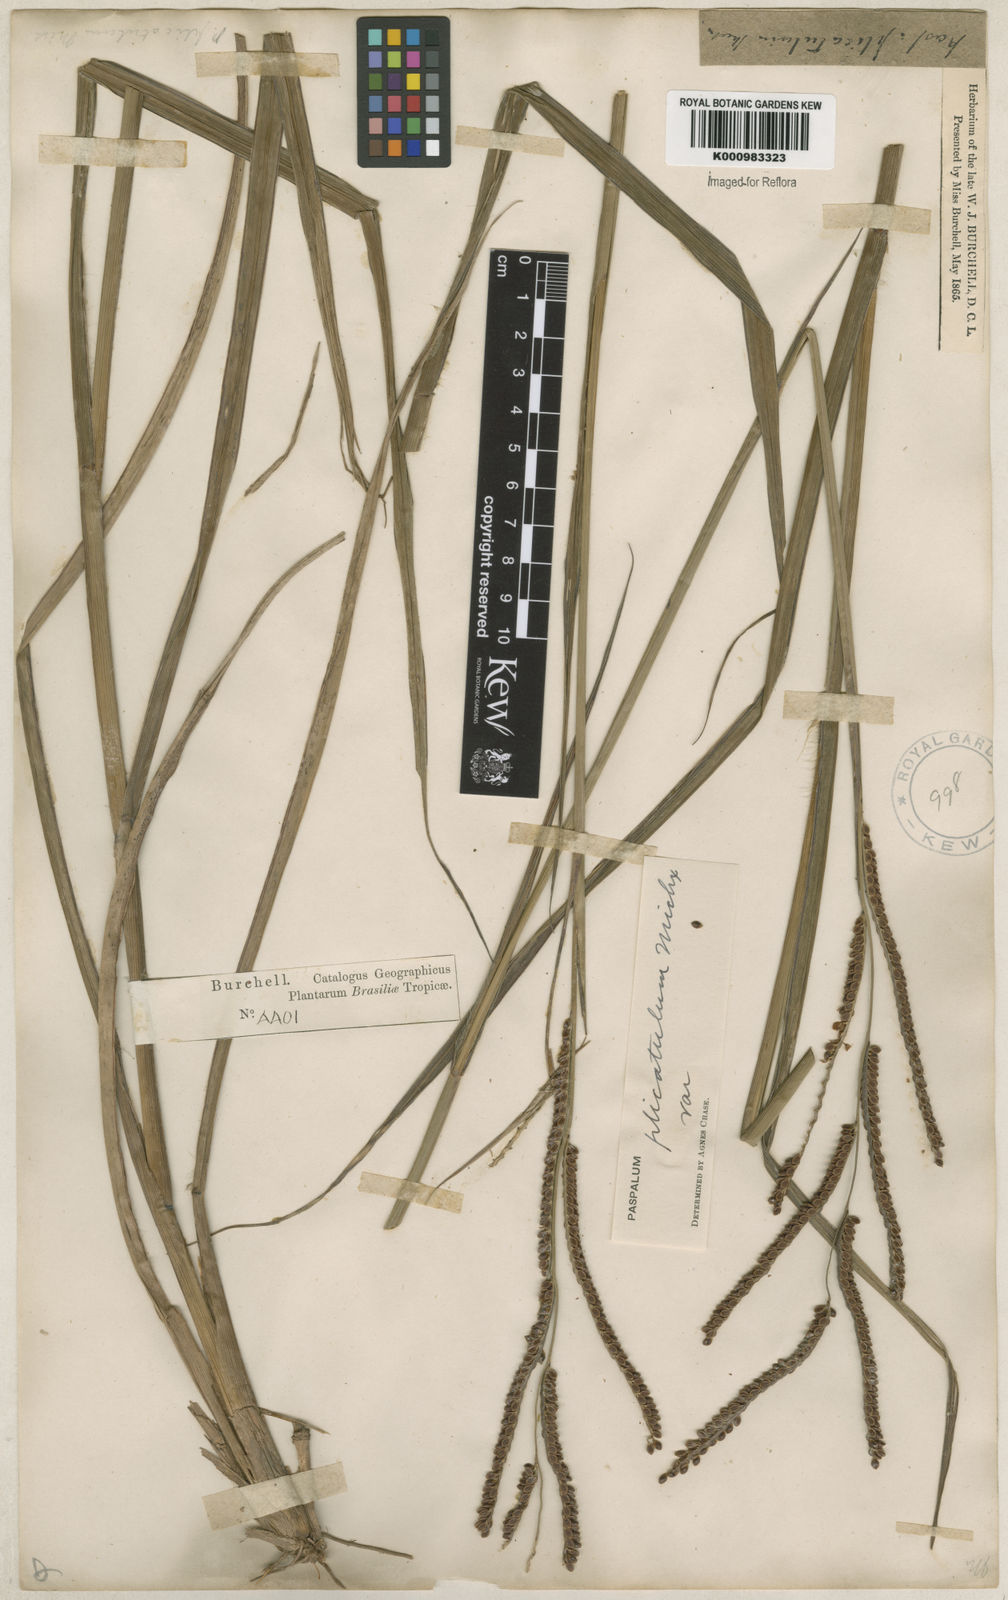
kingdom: Plantae
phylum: Tracheophyta
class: Liliopsida
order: Poales
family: Poaceae
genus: Paspalum
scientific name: Paspalum plicatulum
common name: Top paspalum
